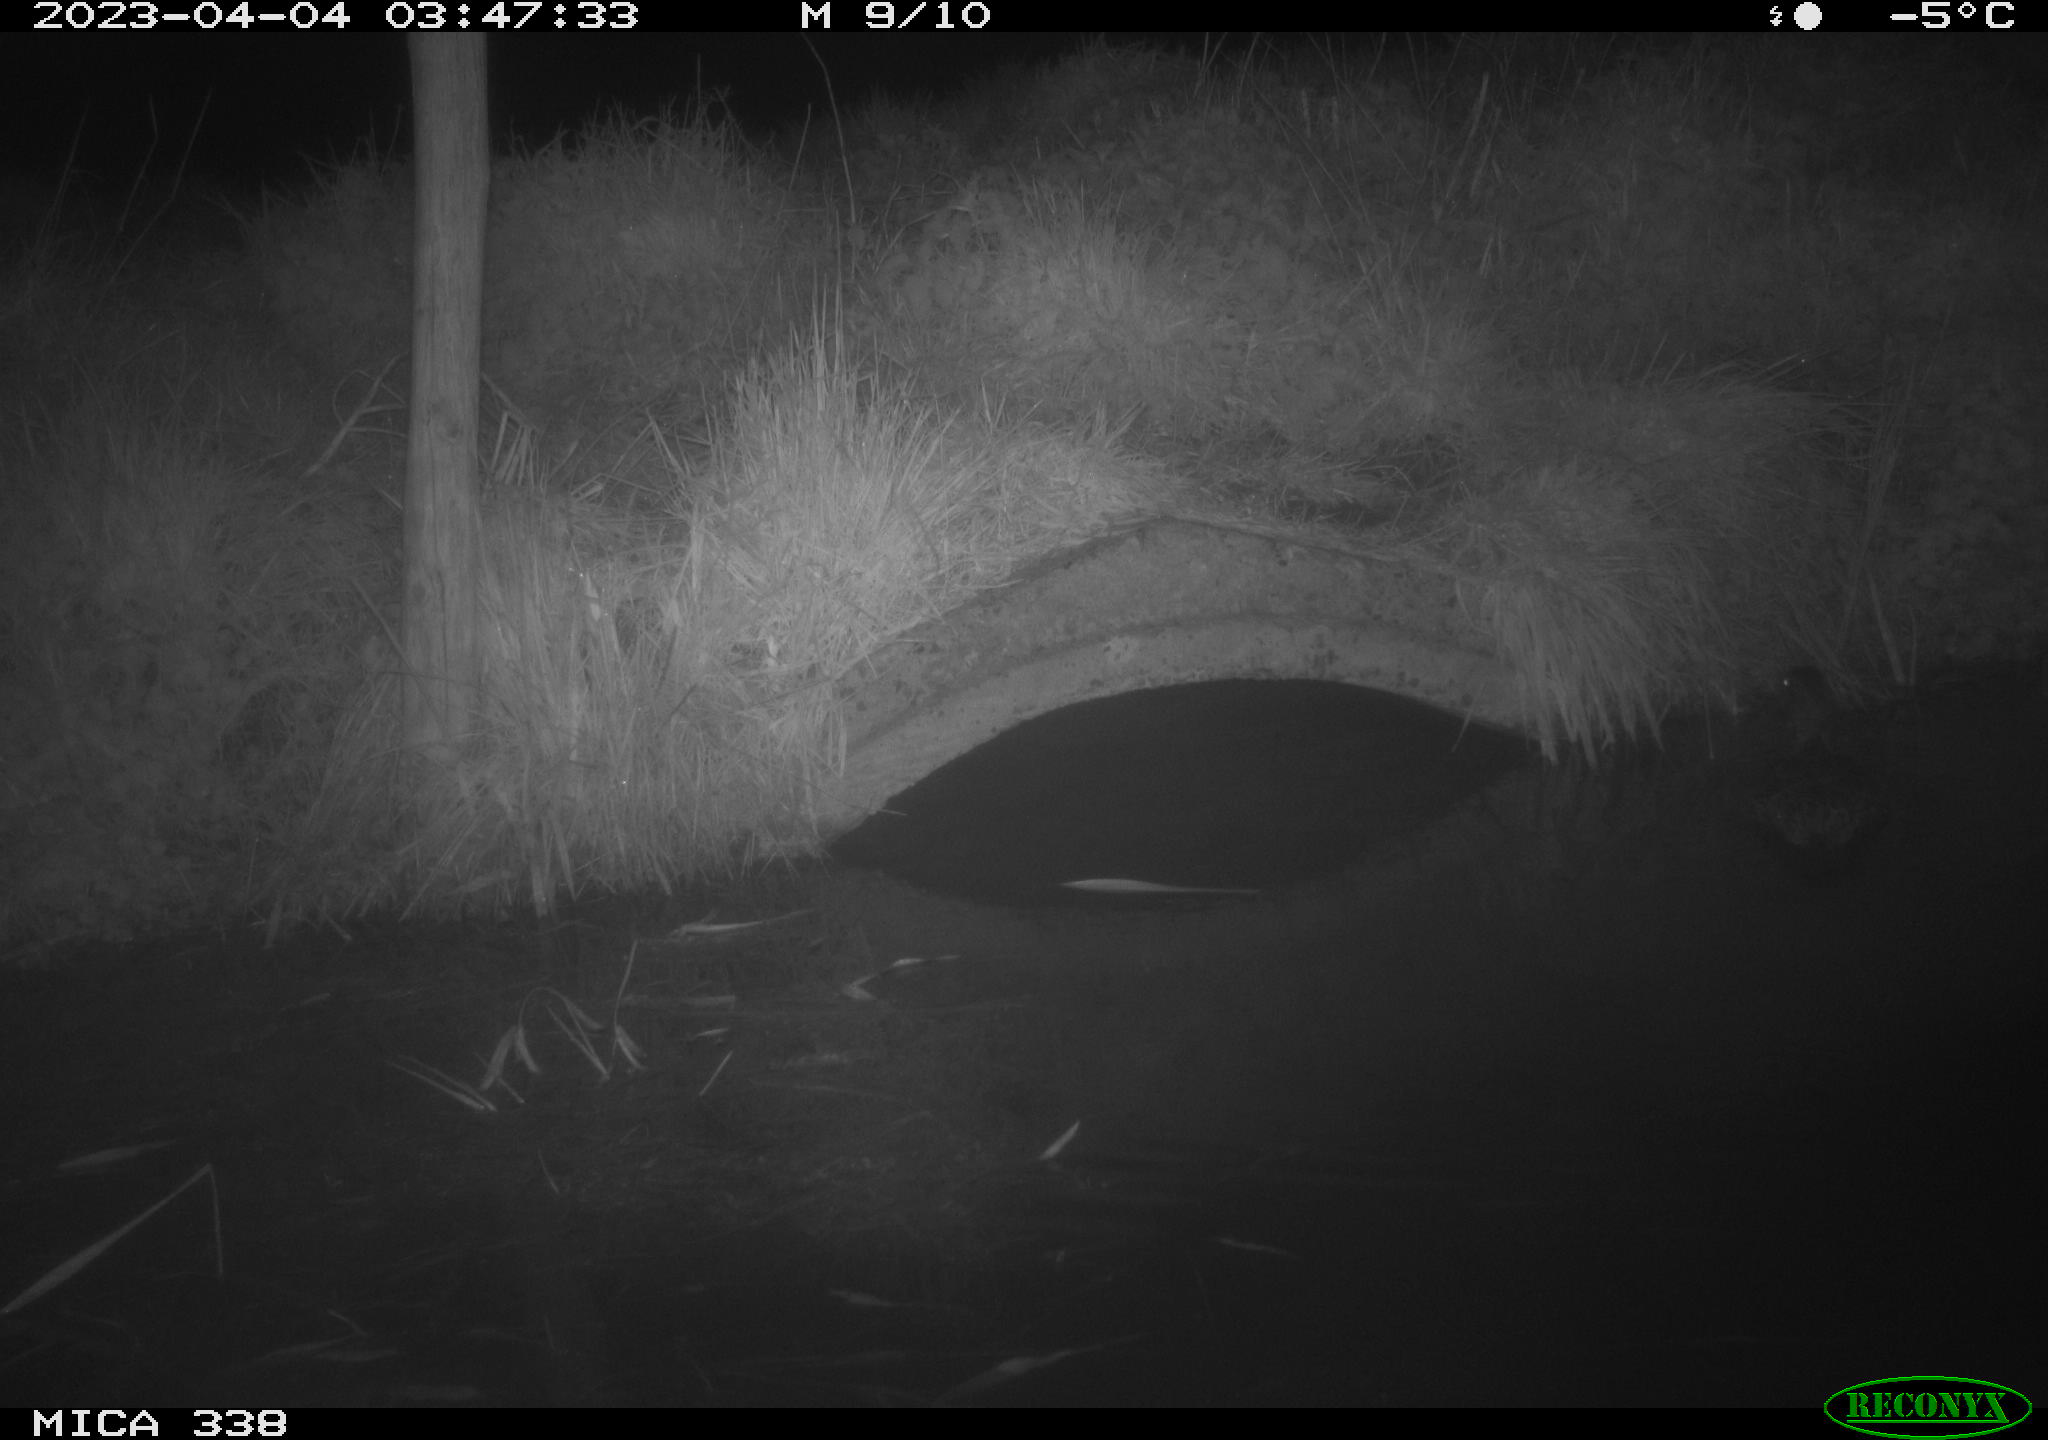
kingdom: Animalia
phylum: Chordata
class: Aves
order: Anseriformes
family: Anatidae
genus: Anas
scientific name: Anas platyrhynchos
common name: Mallard
